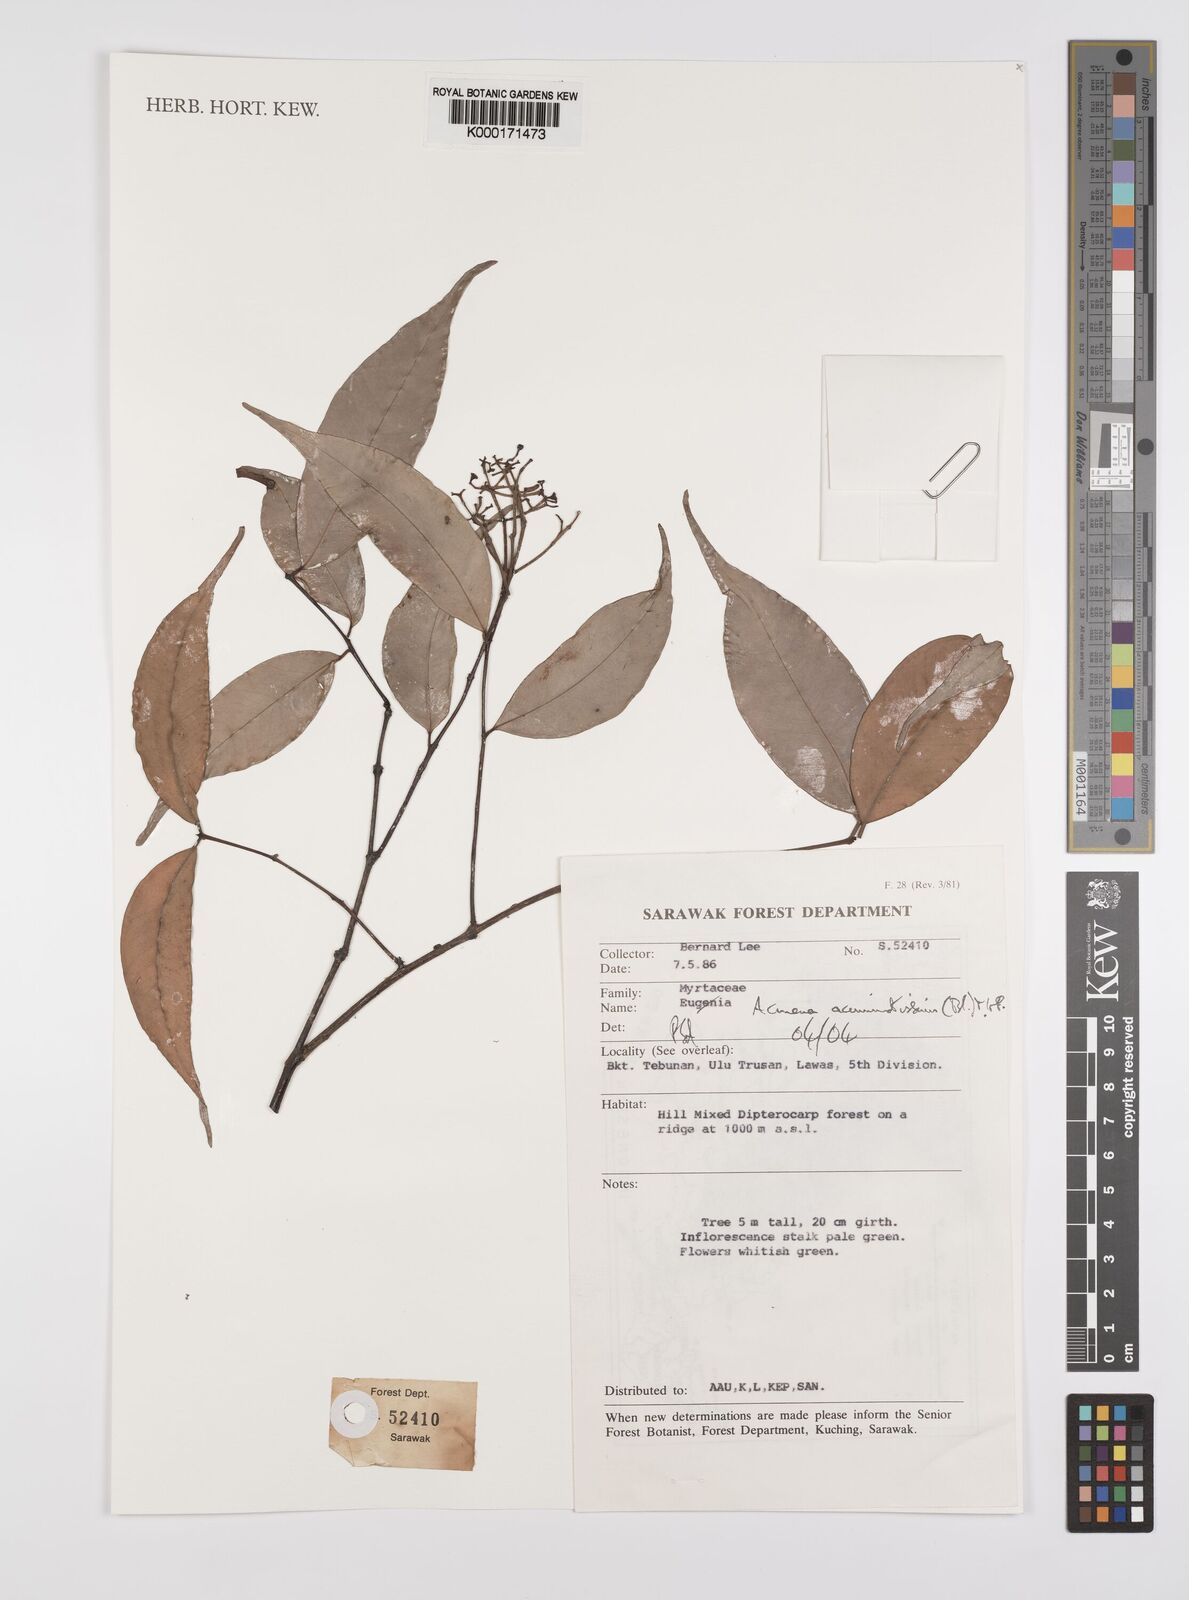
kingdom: Plantae
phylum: Tracheophyta
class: Magnoliopsida
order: Myrtales
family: Myrtaceae
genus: Syzygium
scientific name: Syzygium acuminatissimum
